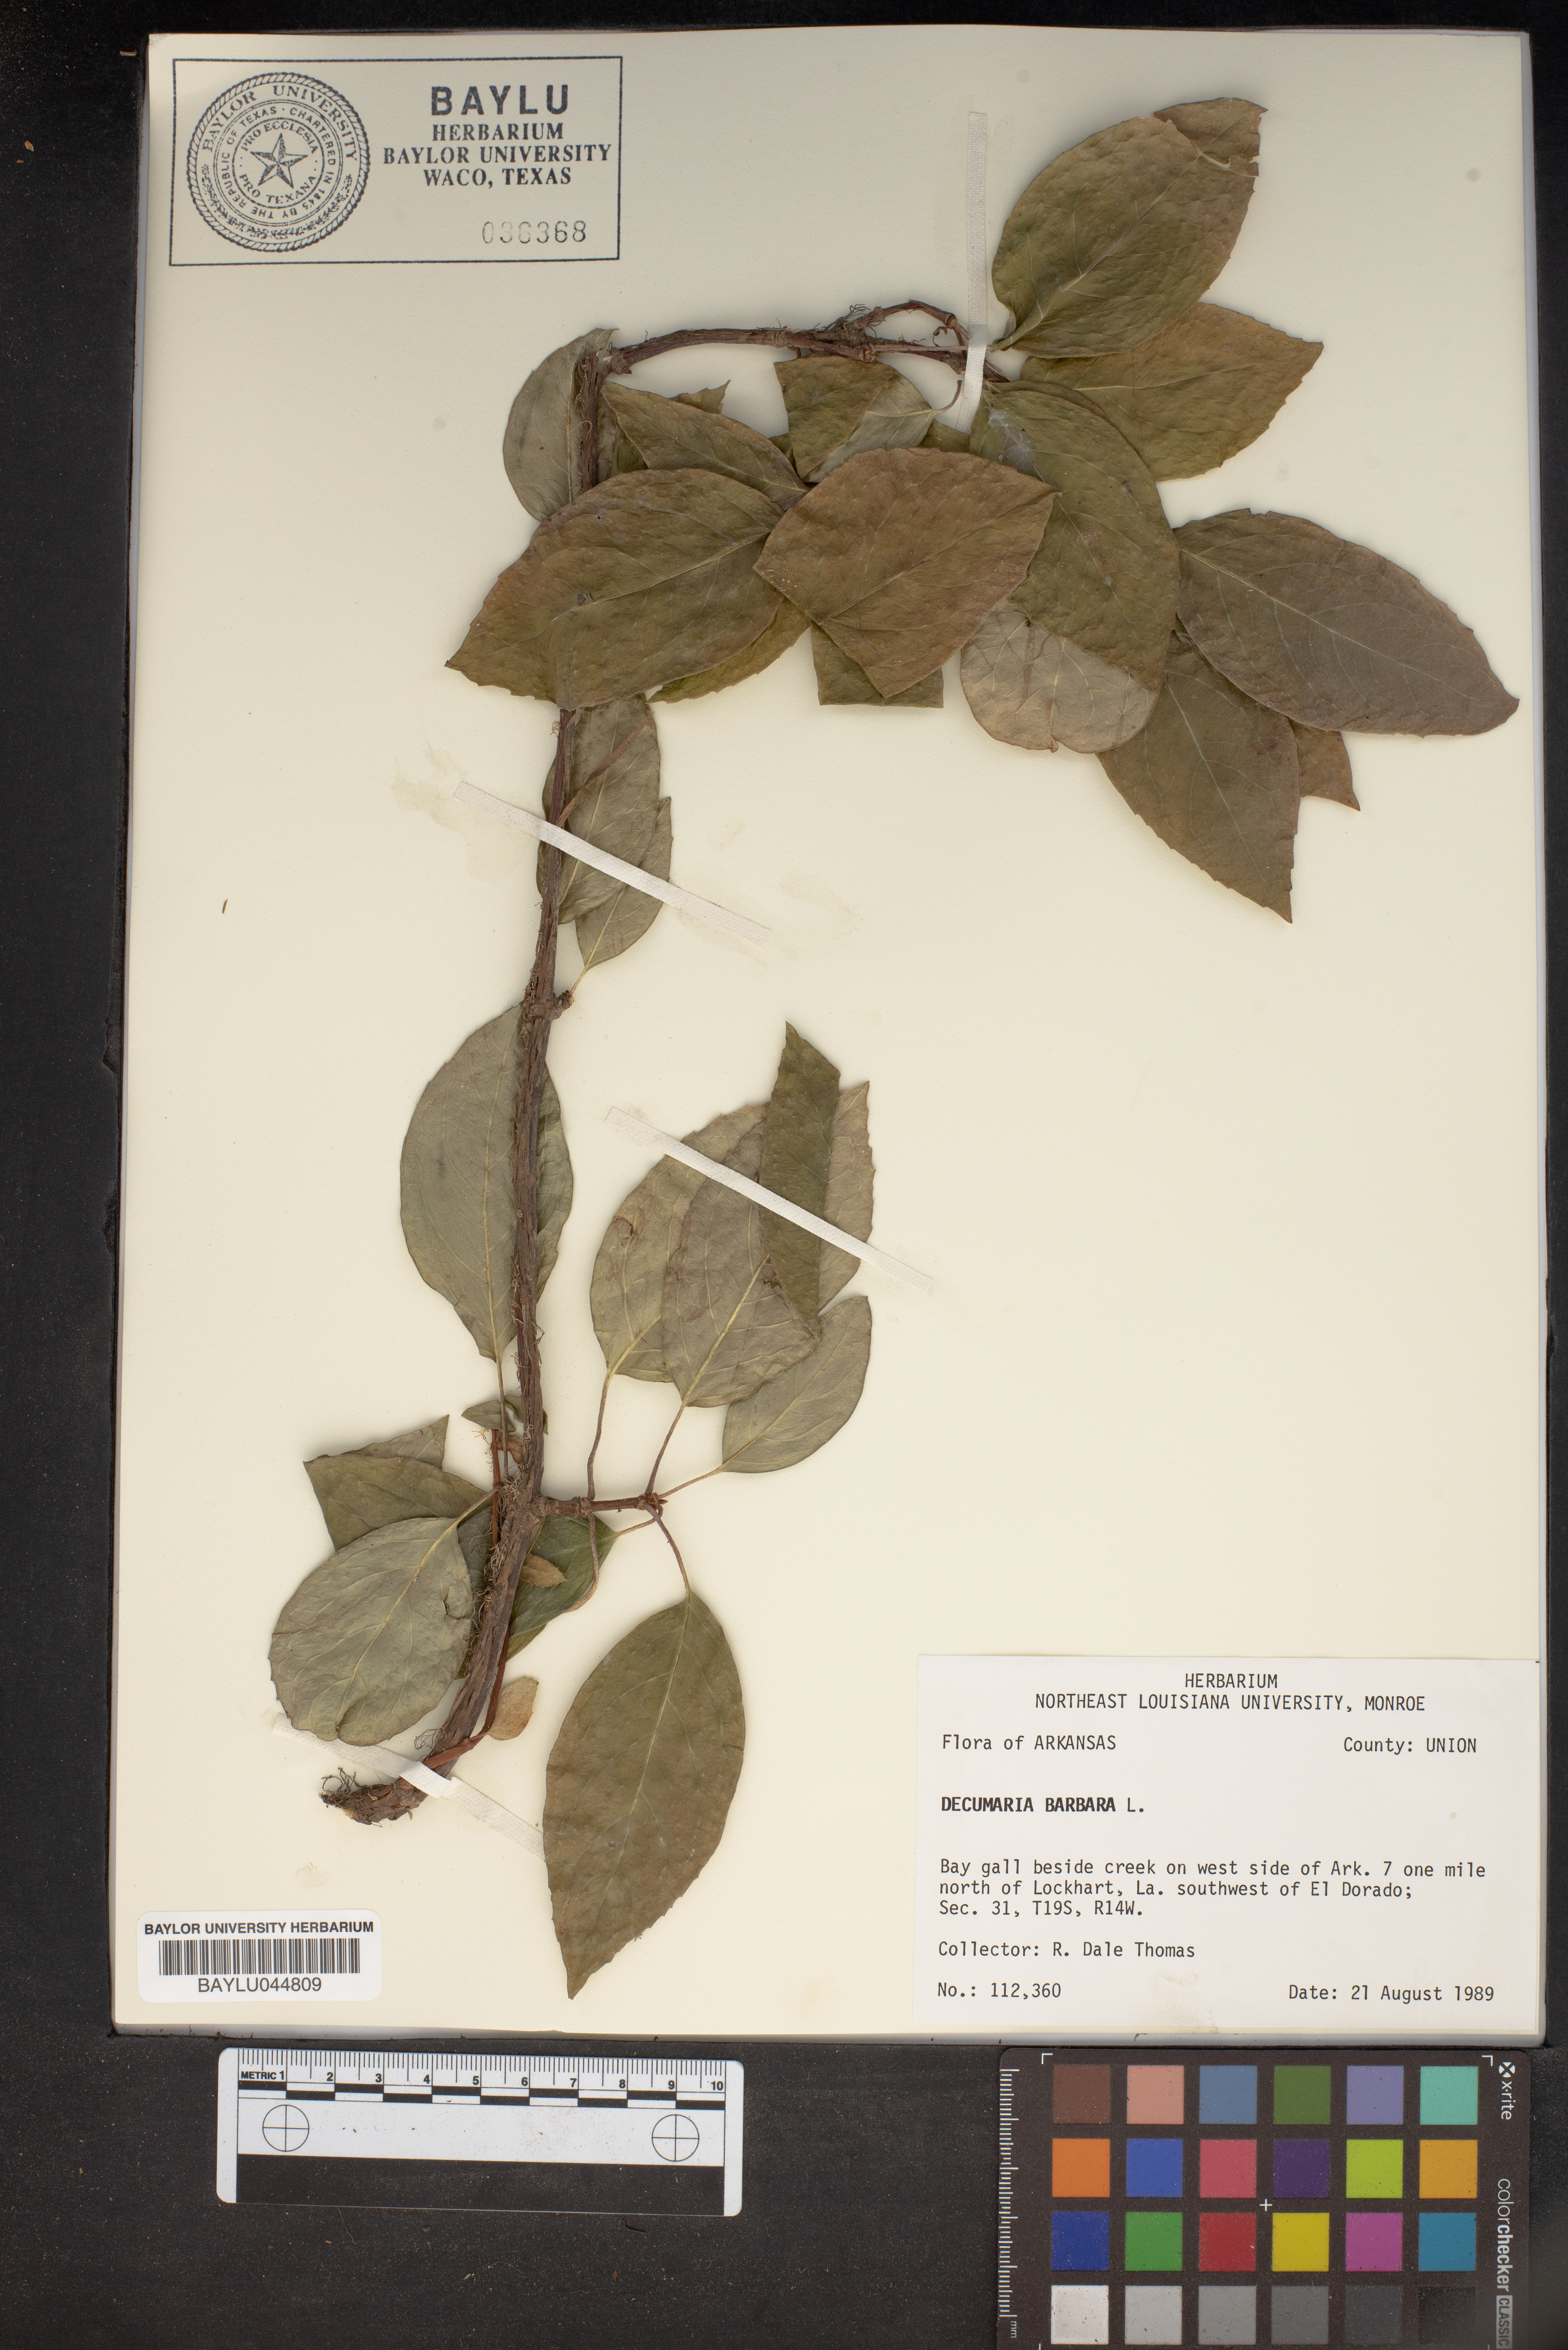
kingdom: Plantae
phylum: Tracheophyta
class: Magnoliopsida
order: Cornales
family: Hydrangeaceae
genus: Hydrangea
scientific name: Hydrangea barbara
